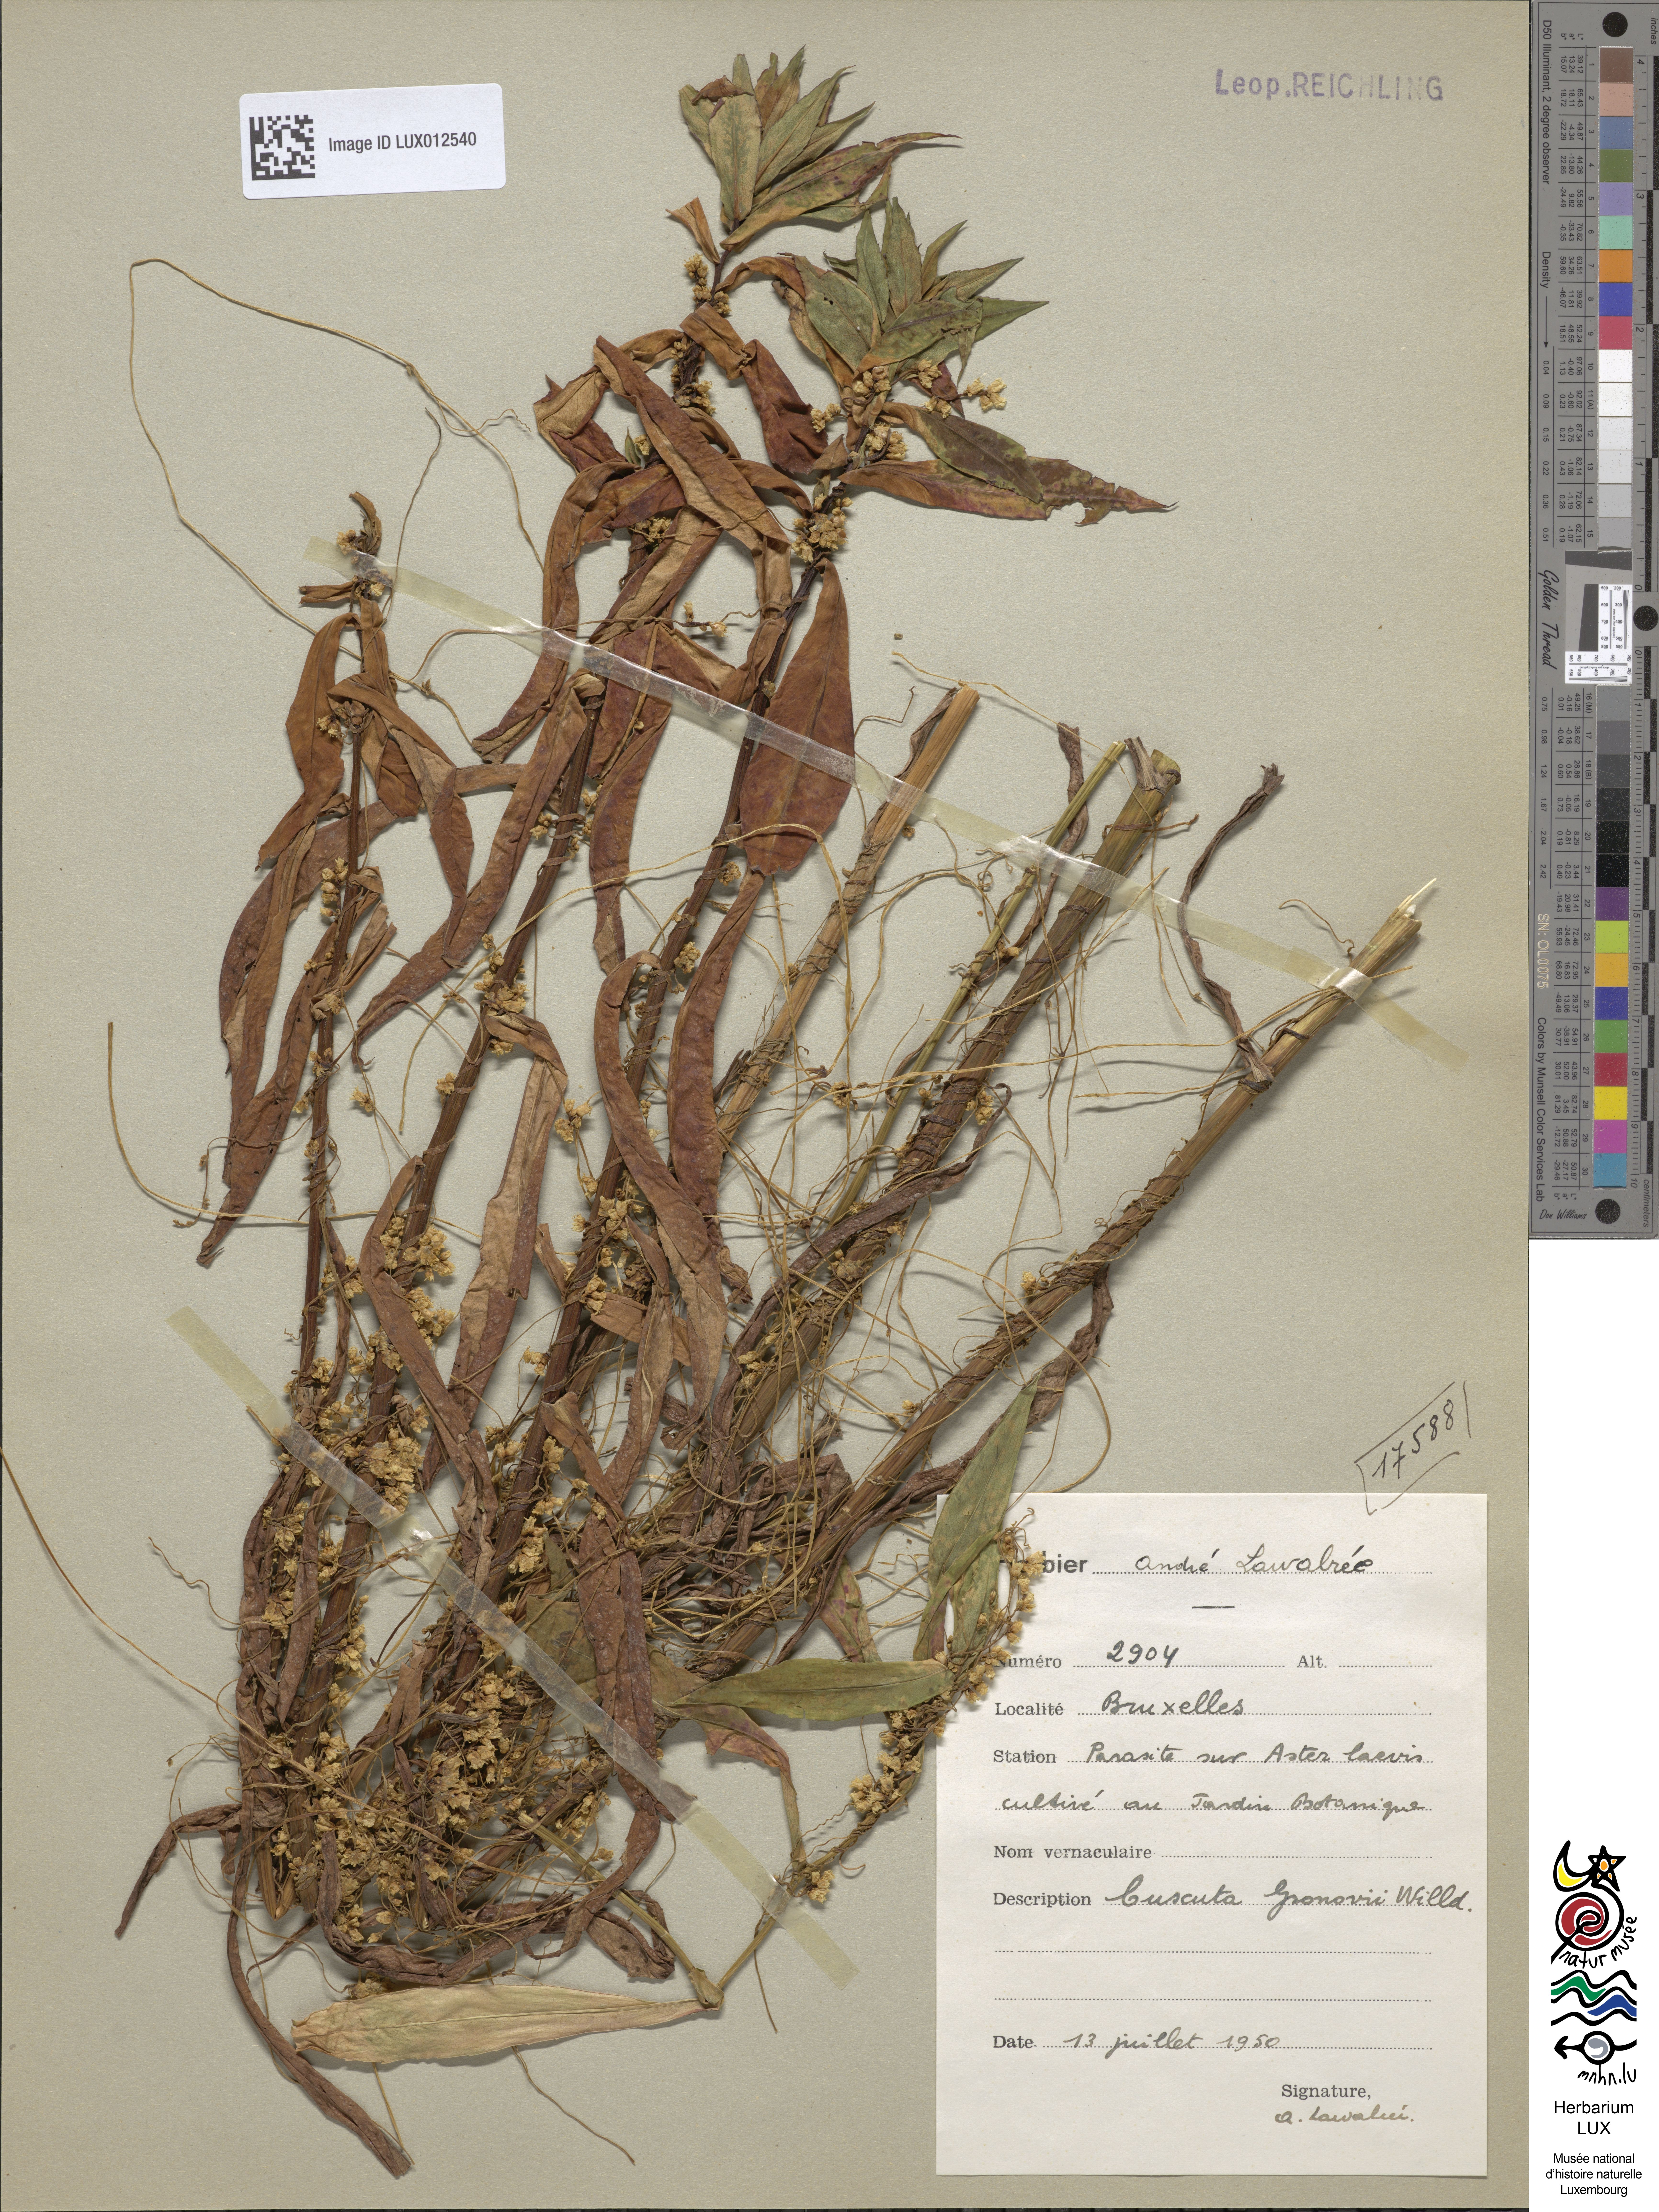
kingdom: Plantae
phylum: Tracheophyta
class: Magnoliopsida
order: Solanales
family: Convolvulaceae
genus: Cuscuta
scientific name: Cuscuta gronovii
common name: Common dodder
